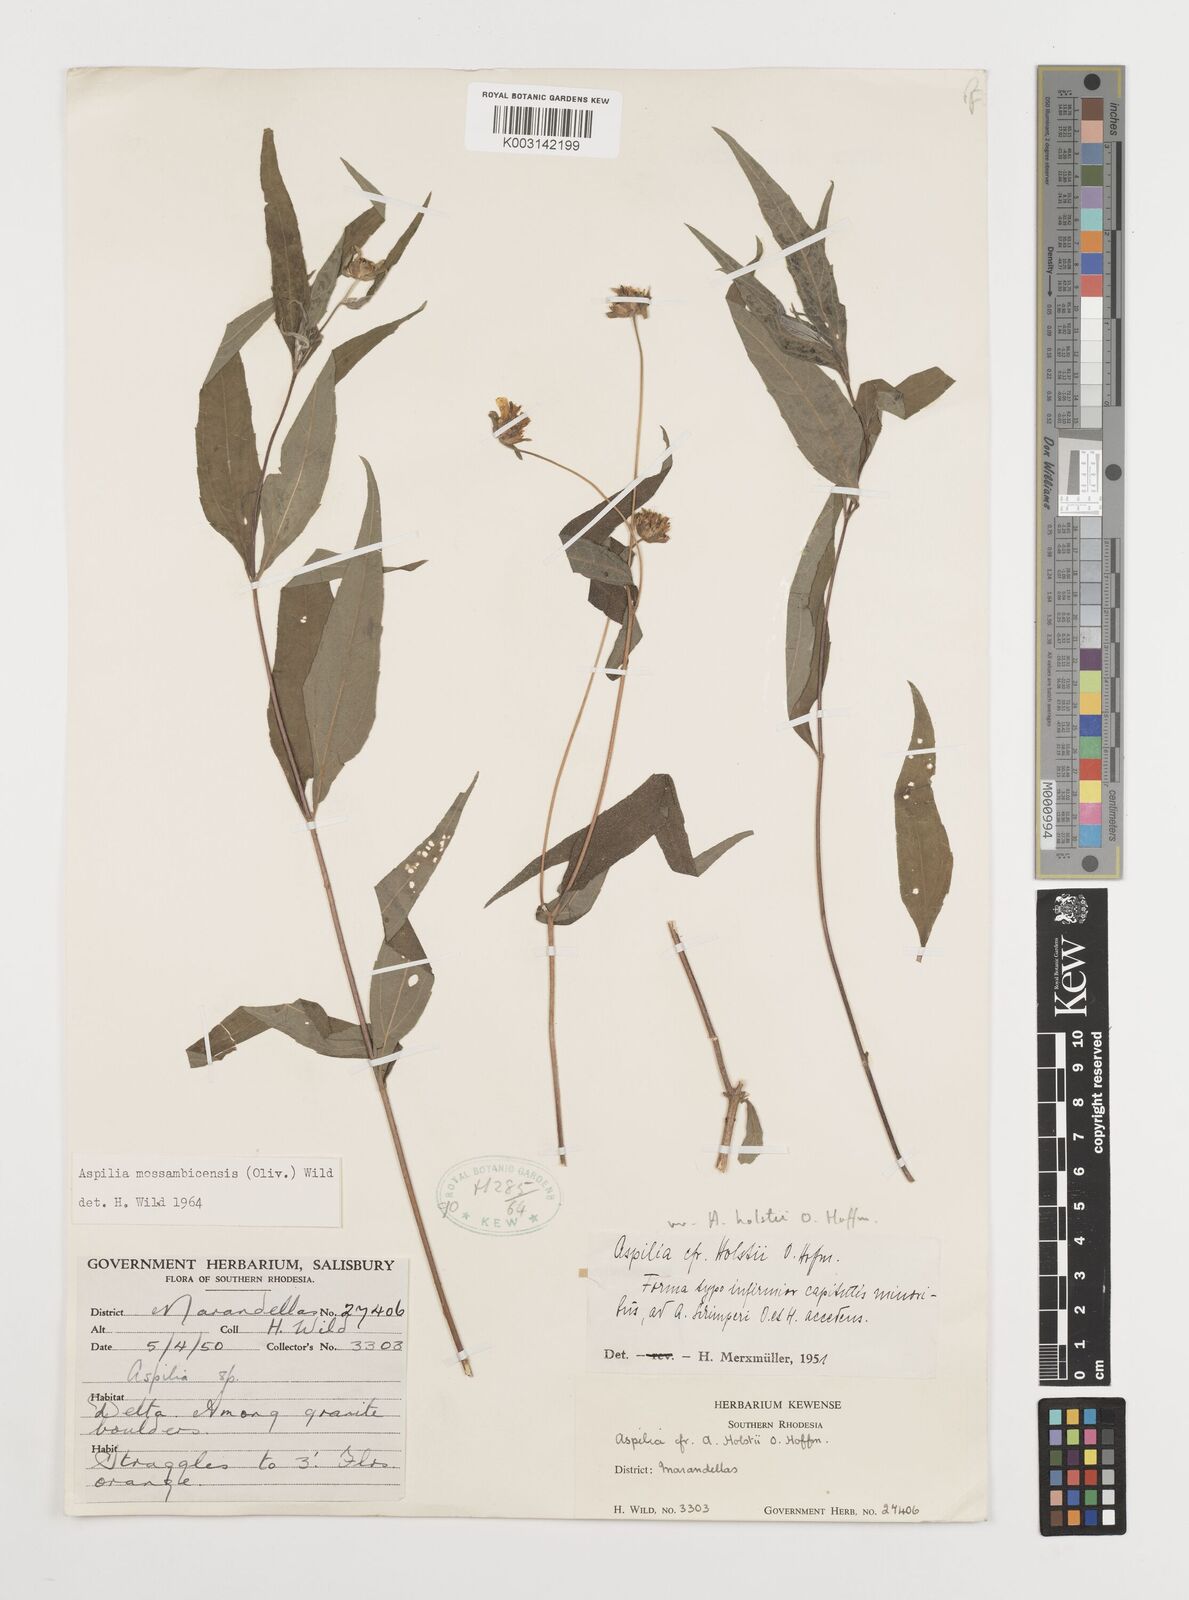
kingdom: Plantae
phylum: Tracheophyta
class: Magnoliopsida
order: Asterales
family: Asteraceae
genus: Aspilia
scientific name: Aspilia mossambicensis
